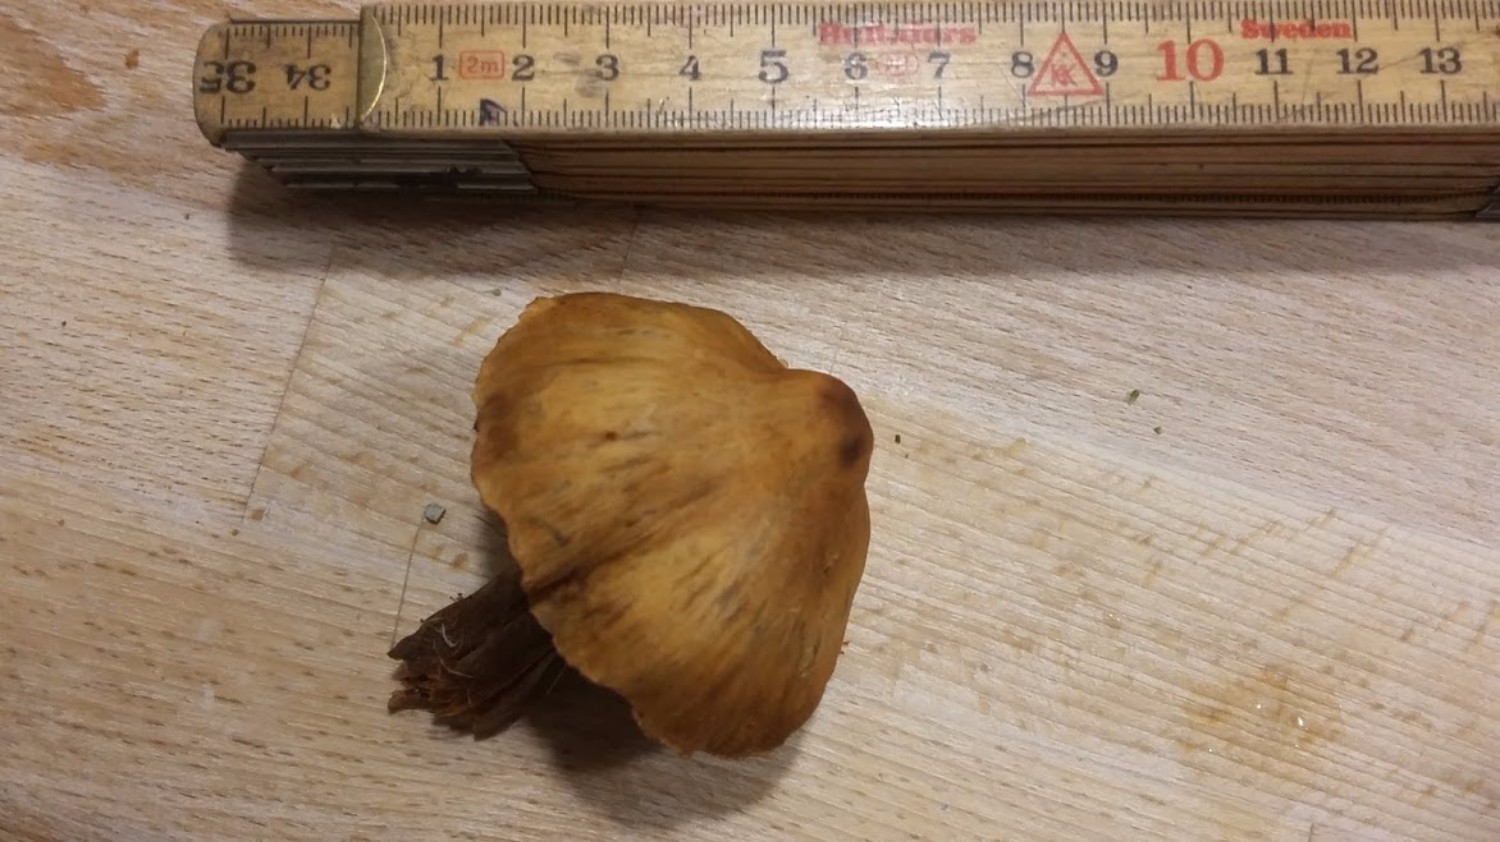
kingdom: Fungi
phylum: Basidiomycota
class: Agaricomycetes
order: Agaricales
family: Cortinariaceae
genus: Cortinarius
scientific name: Cortinarius
